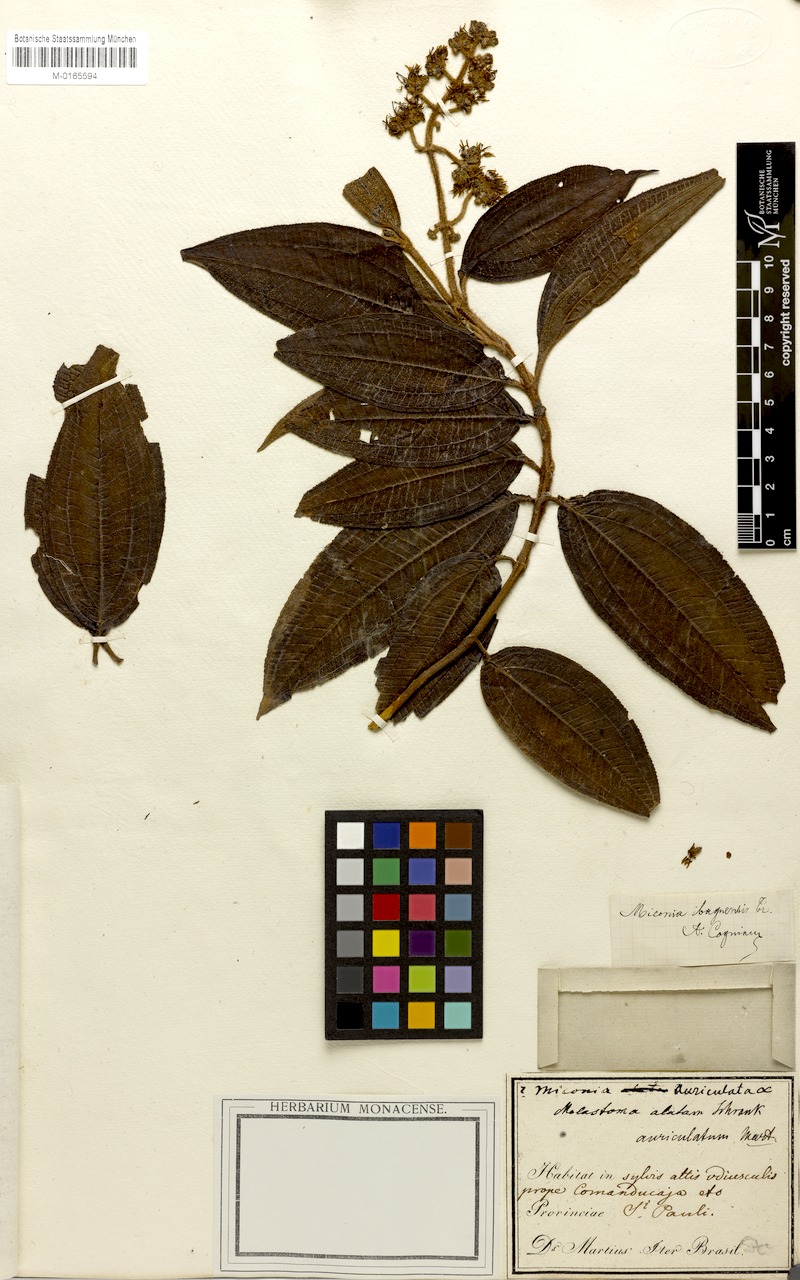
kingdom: Plantae
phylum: Tracheophyta
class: Magnoliopsida
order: Myrtales
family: Melastomataceae
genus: Miconia
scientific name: Miconia ibaguensis
